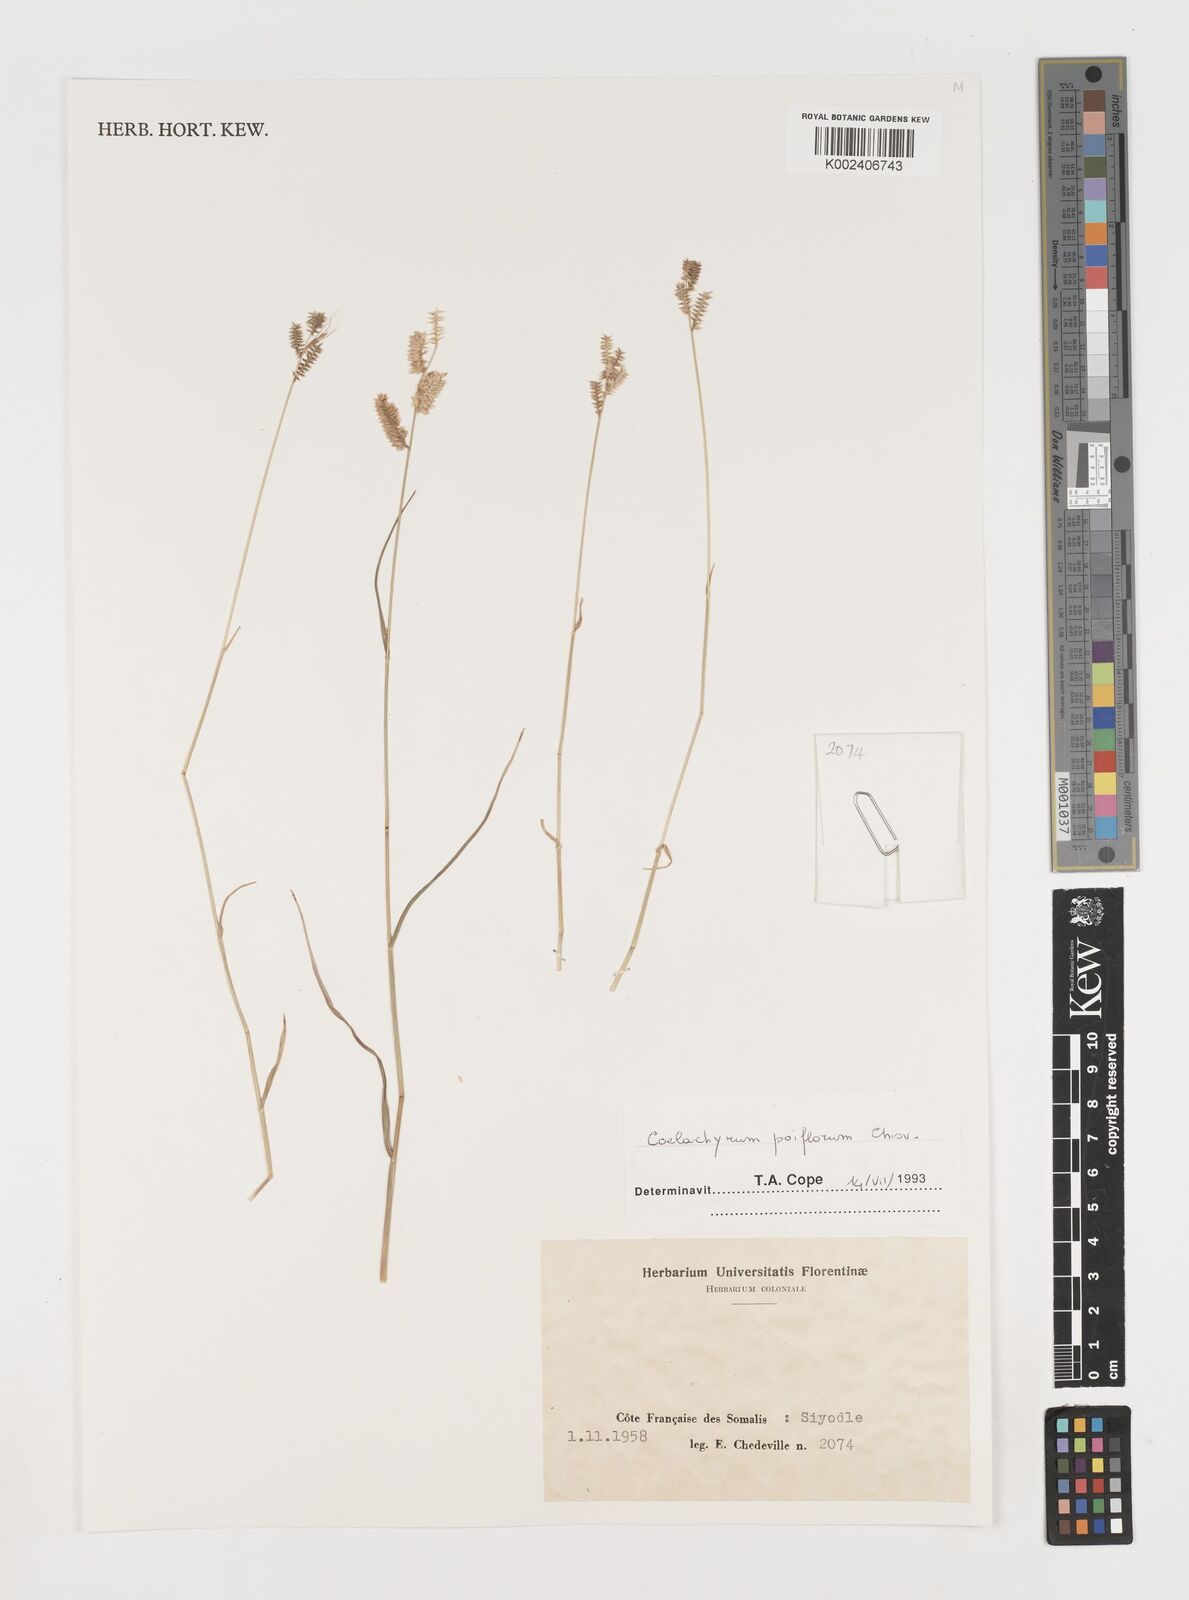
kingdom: Plantae
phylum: Tracheophyta
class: Liliopsida
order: Poales
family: Poaceae
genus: Coelachyrum
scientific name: Coelachyrum poiflorum
